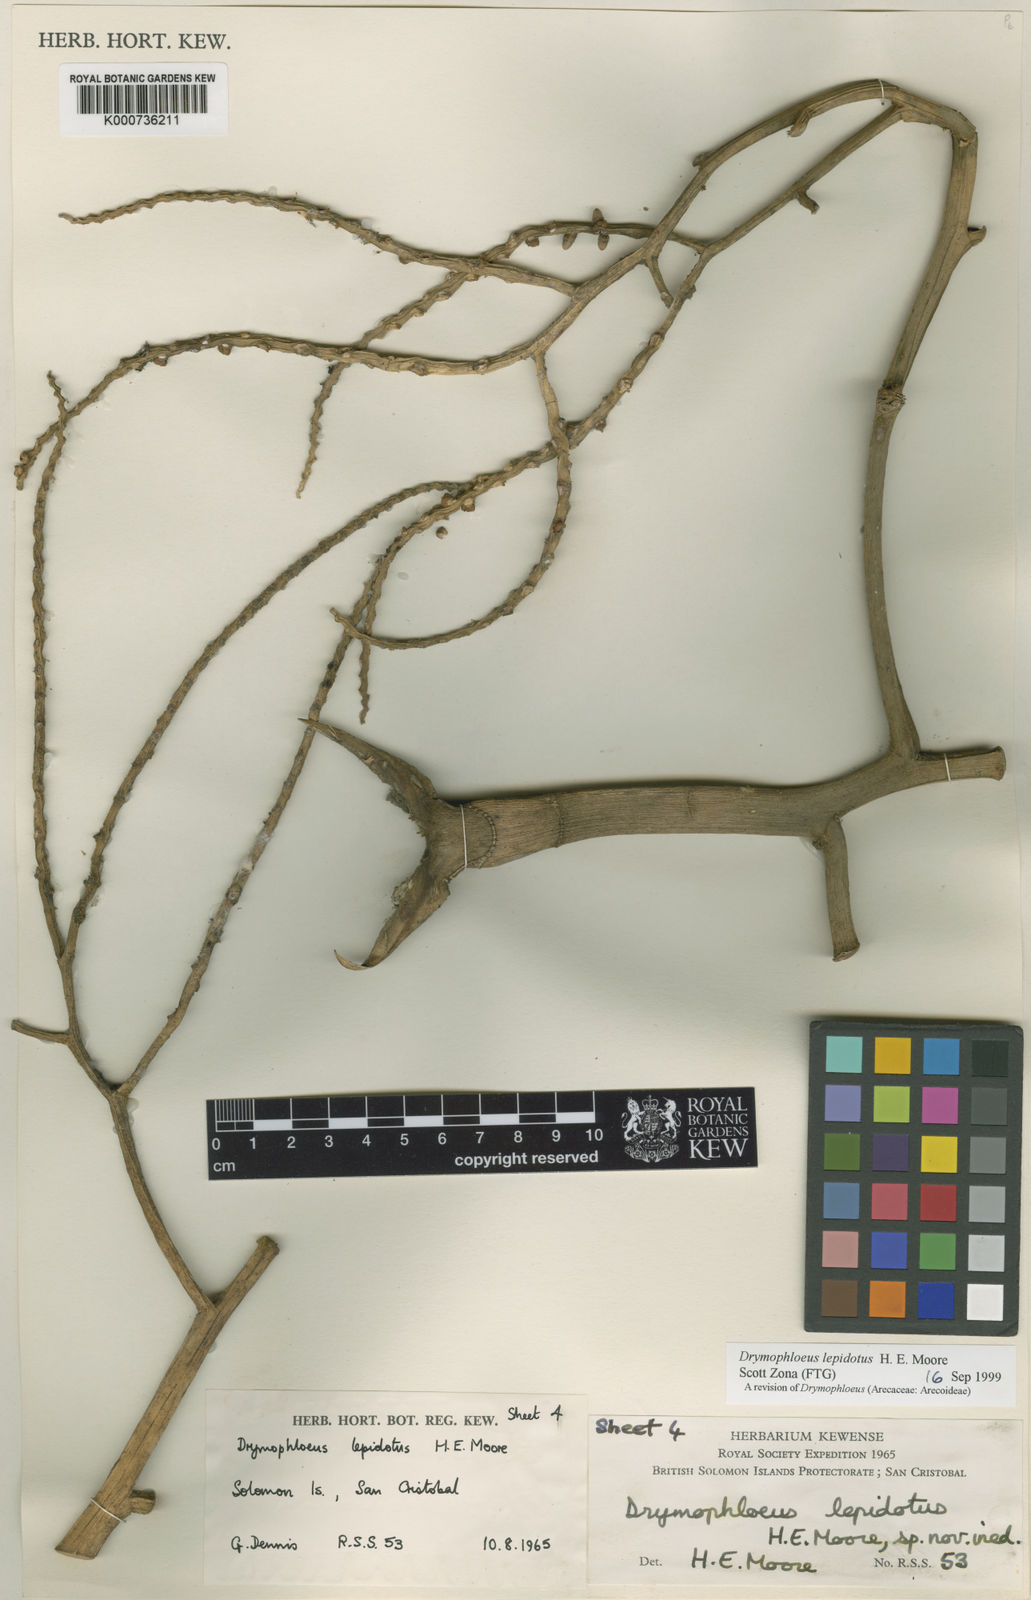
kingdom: Plantae
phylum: Tracheophyta
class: Liliopsida
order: Arecales
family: Arecaceae
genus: Veitchia
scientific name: Veitchia lepidota
